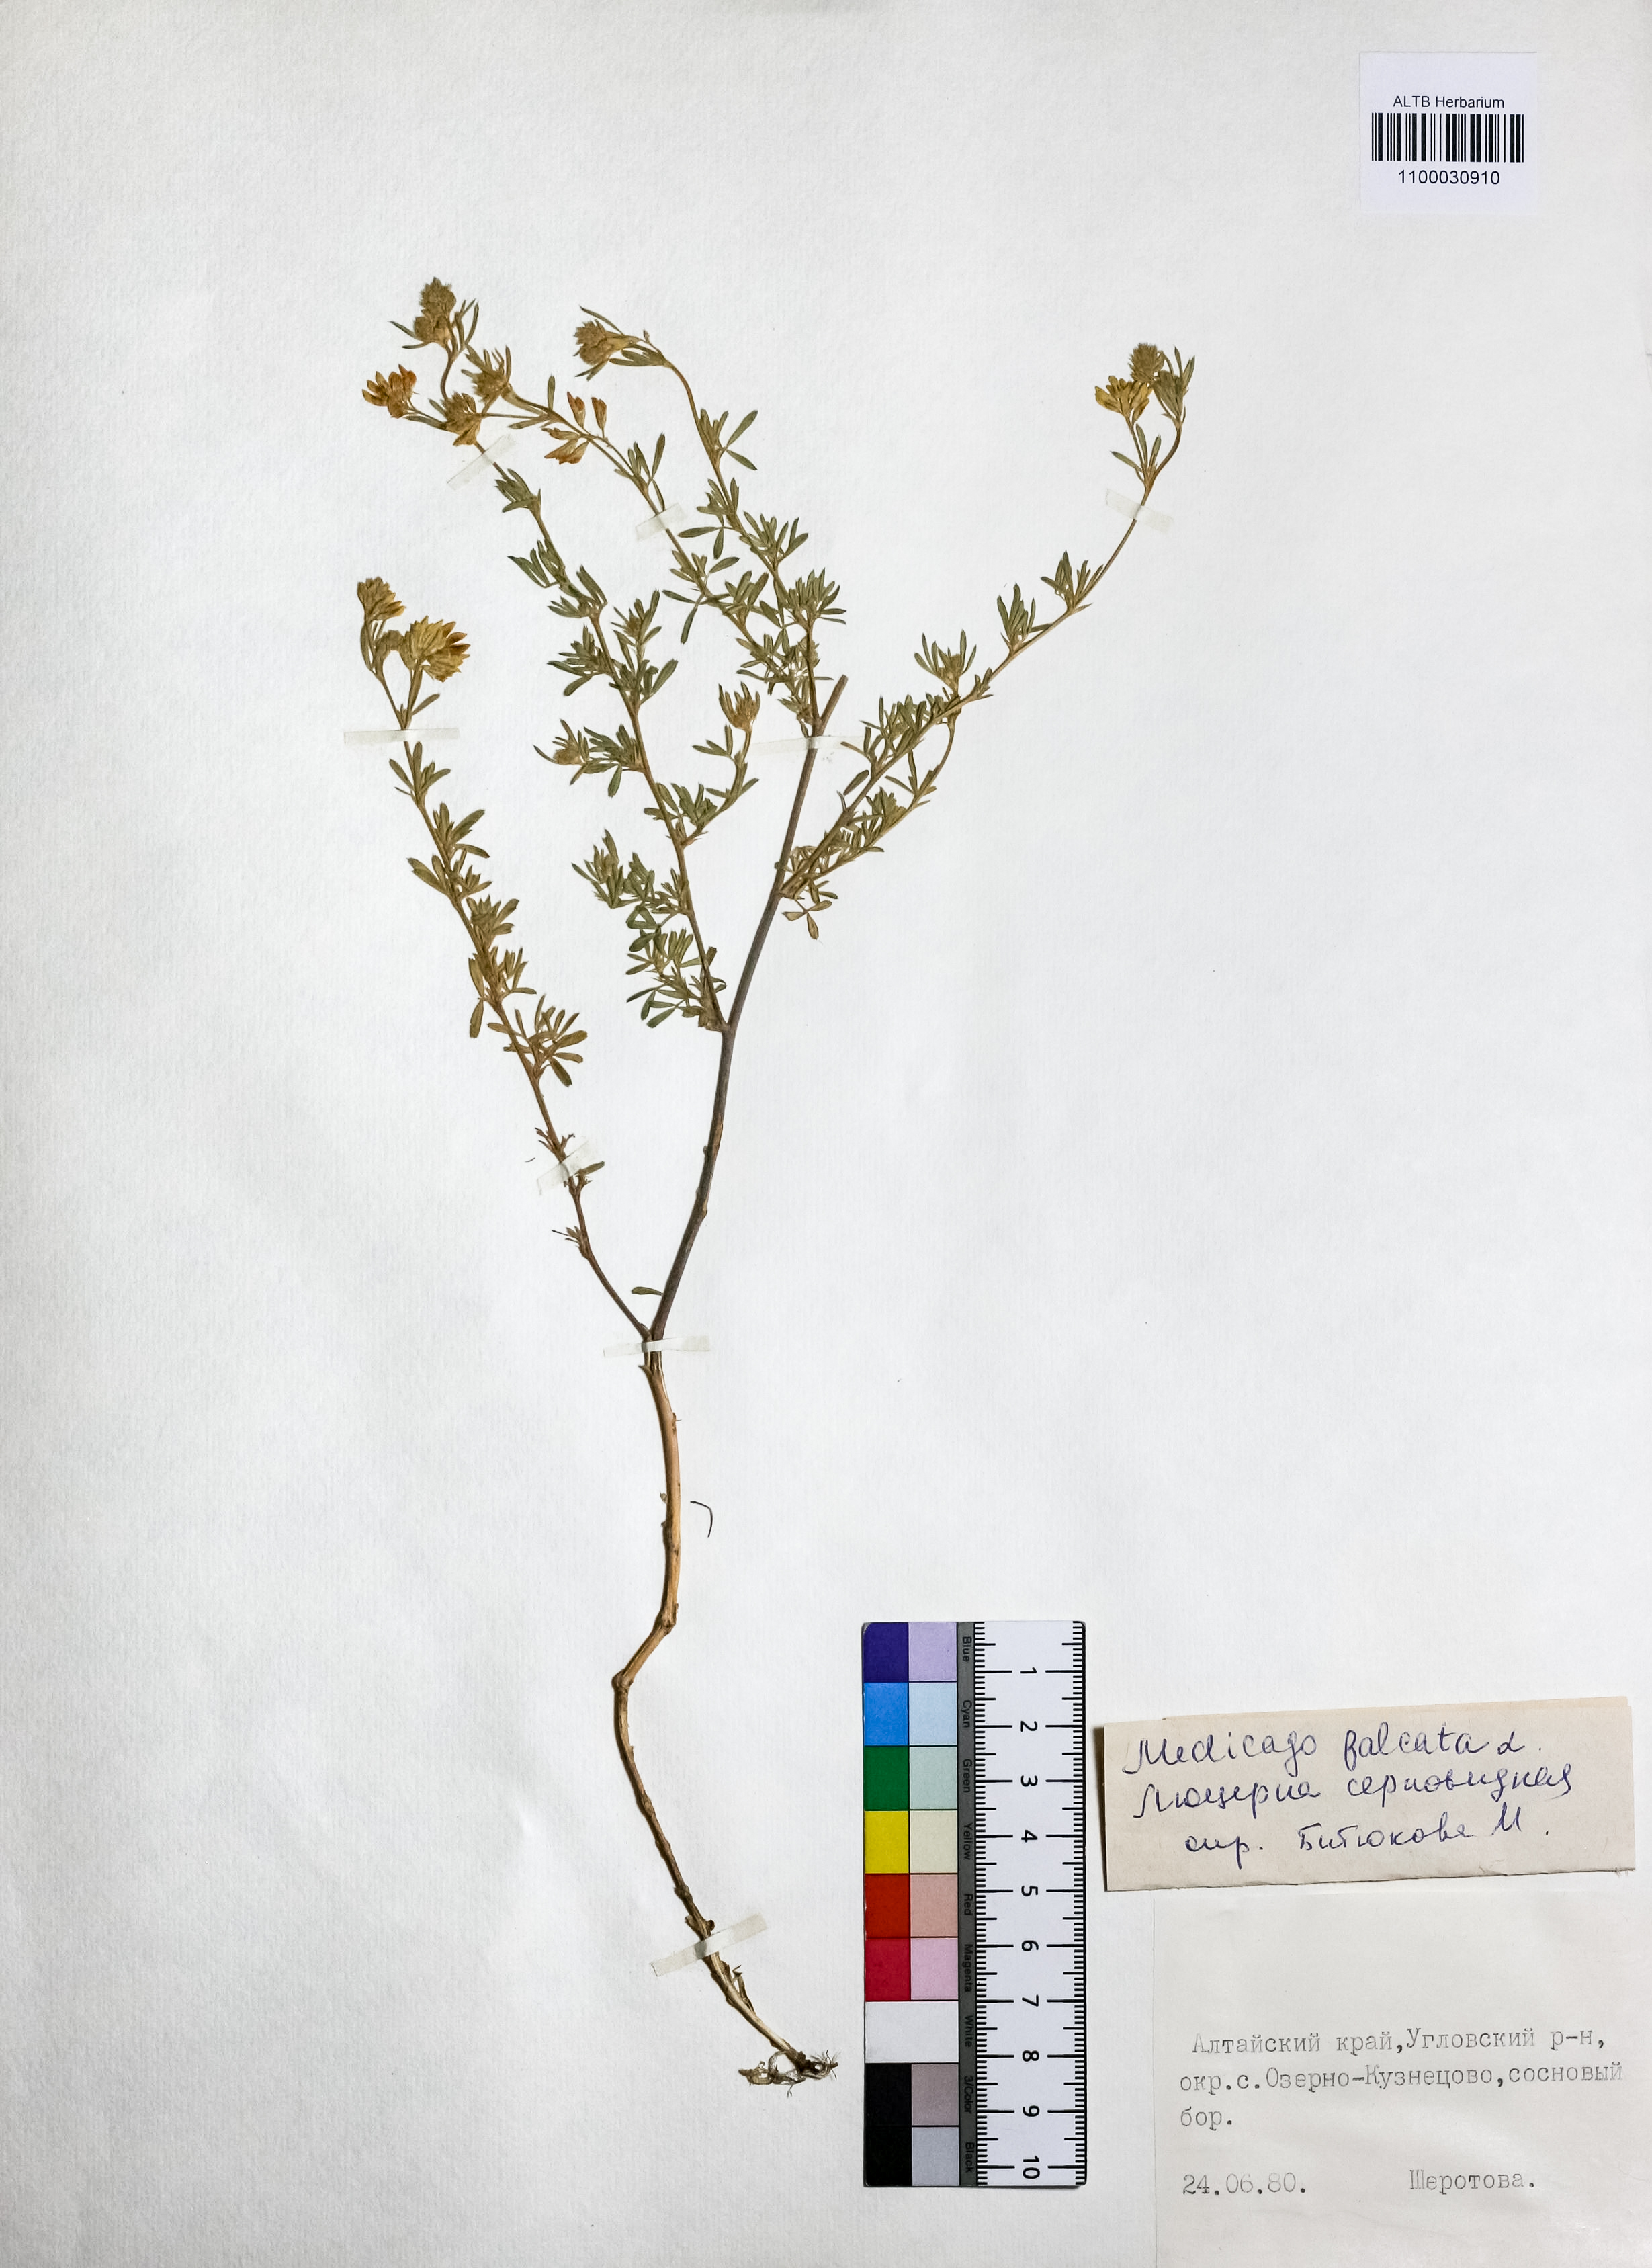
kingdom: Plantae
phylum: Tracheophyta
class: Magnoliopsida
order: Fabales
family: Fabaceae
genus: Medicago
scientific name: Medicago falcata
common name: Sickle medick
